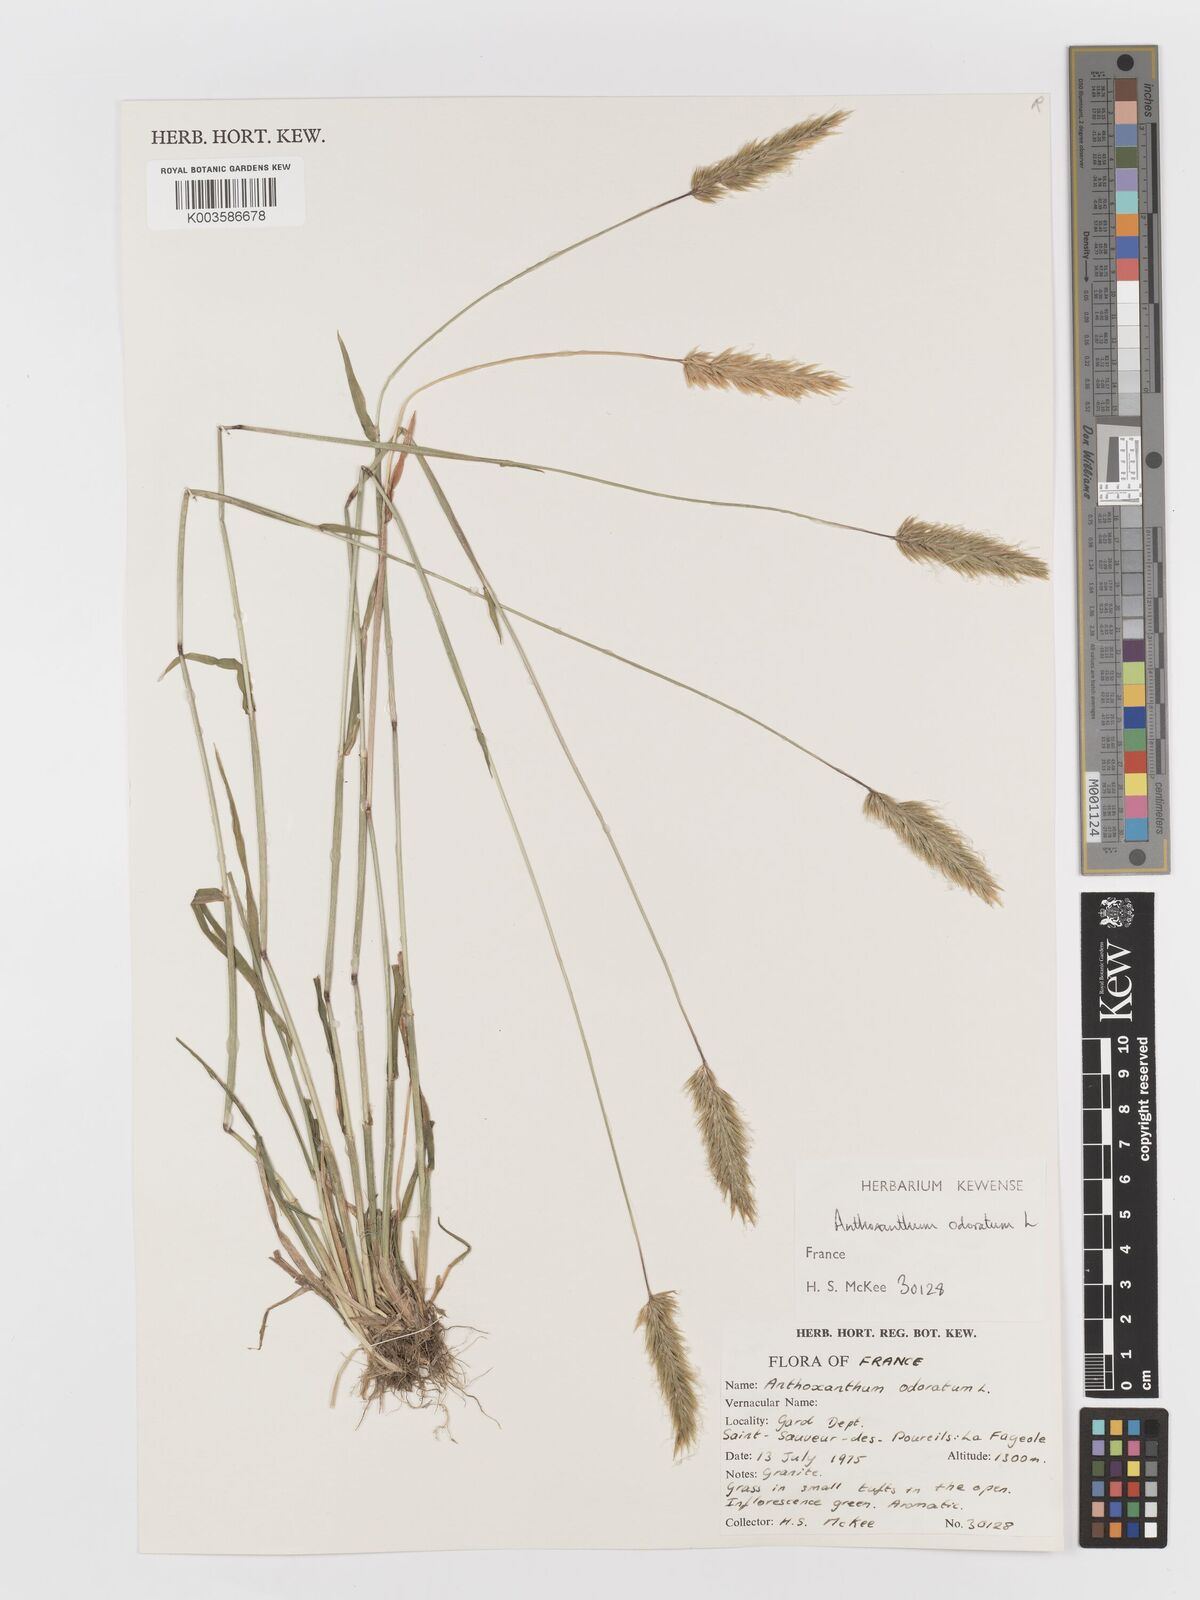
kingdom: Plantae
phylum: Tracheophyta
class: Liliopsida
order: Poales
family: Poaceae
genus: Anthoxanthum
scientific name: Anthoxanthum odoratum
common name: Sweet vernalgrass
